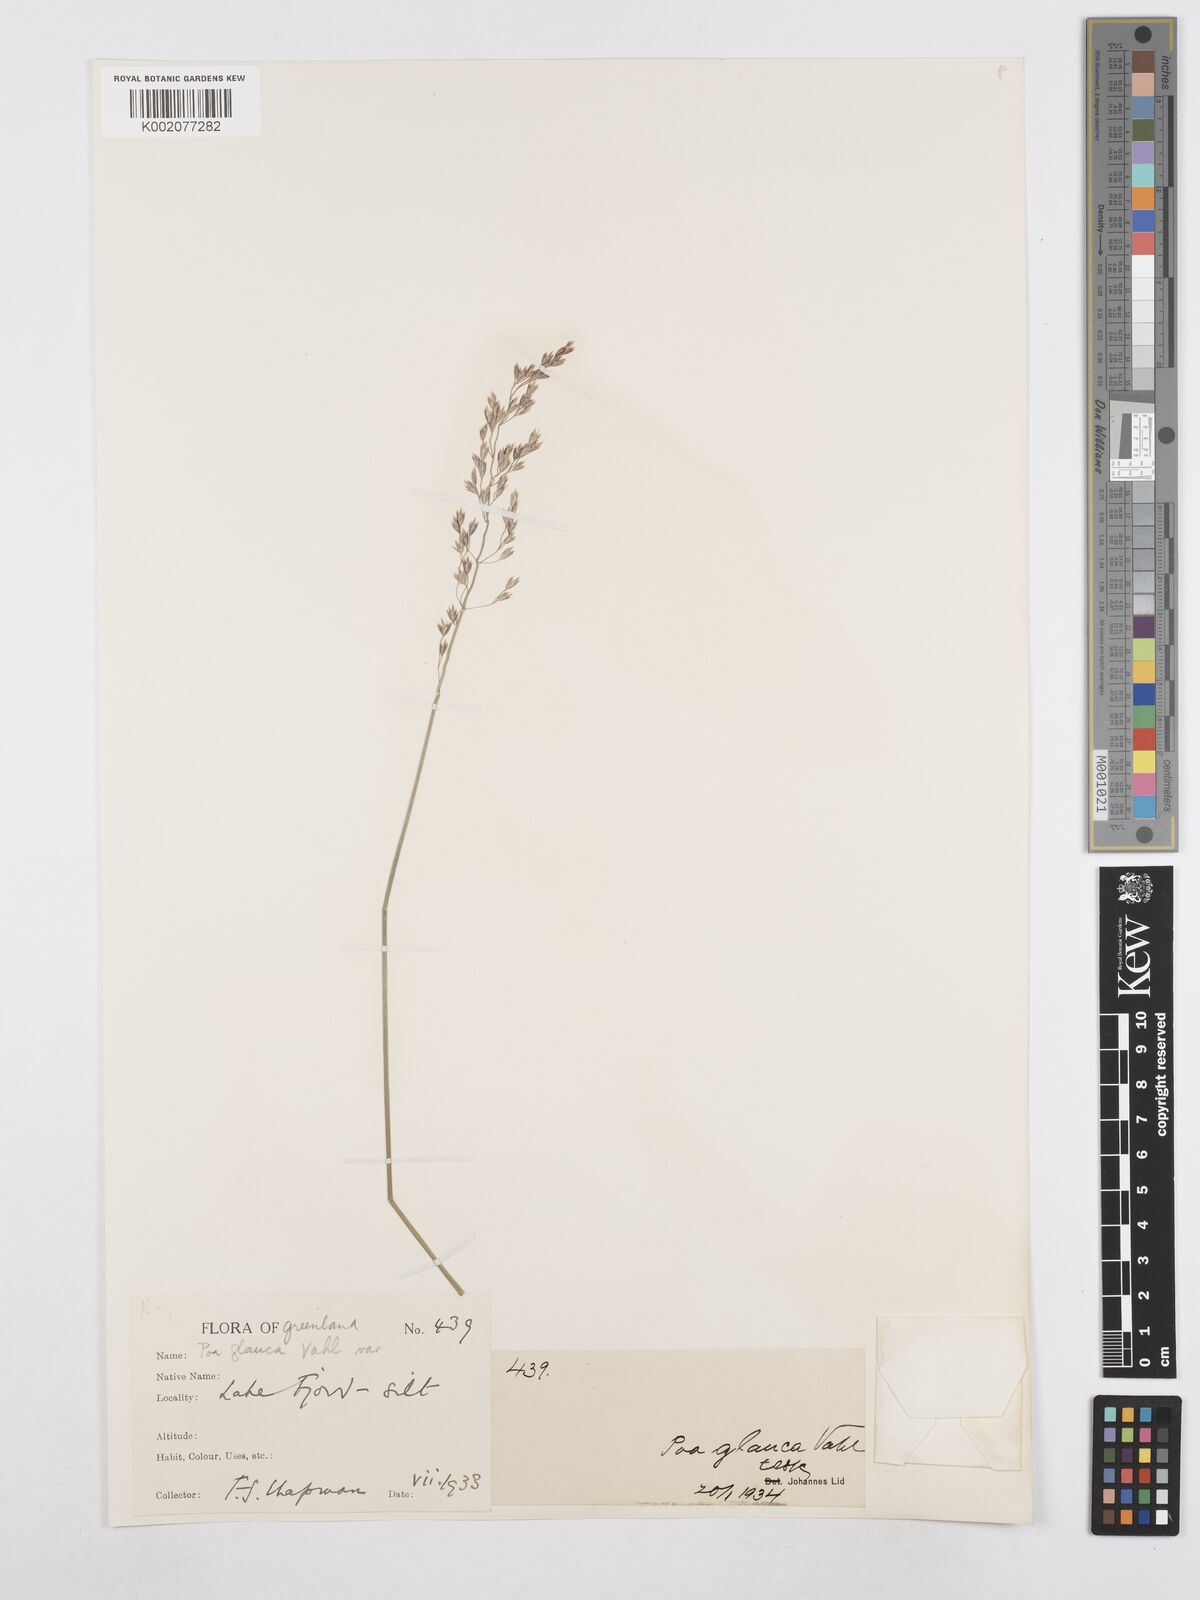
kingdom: Plantae
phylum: Tracheophyta
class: Liliopsida
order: Poales
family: Poaceae
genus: Poa
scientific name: Poa glauca
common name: Glaucous bluegrass
